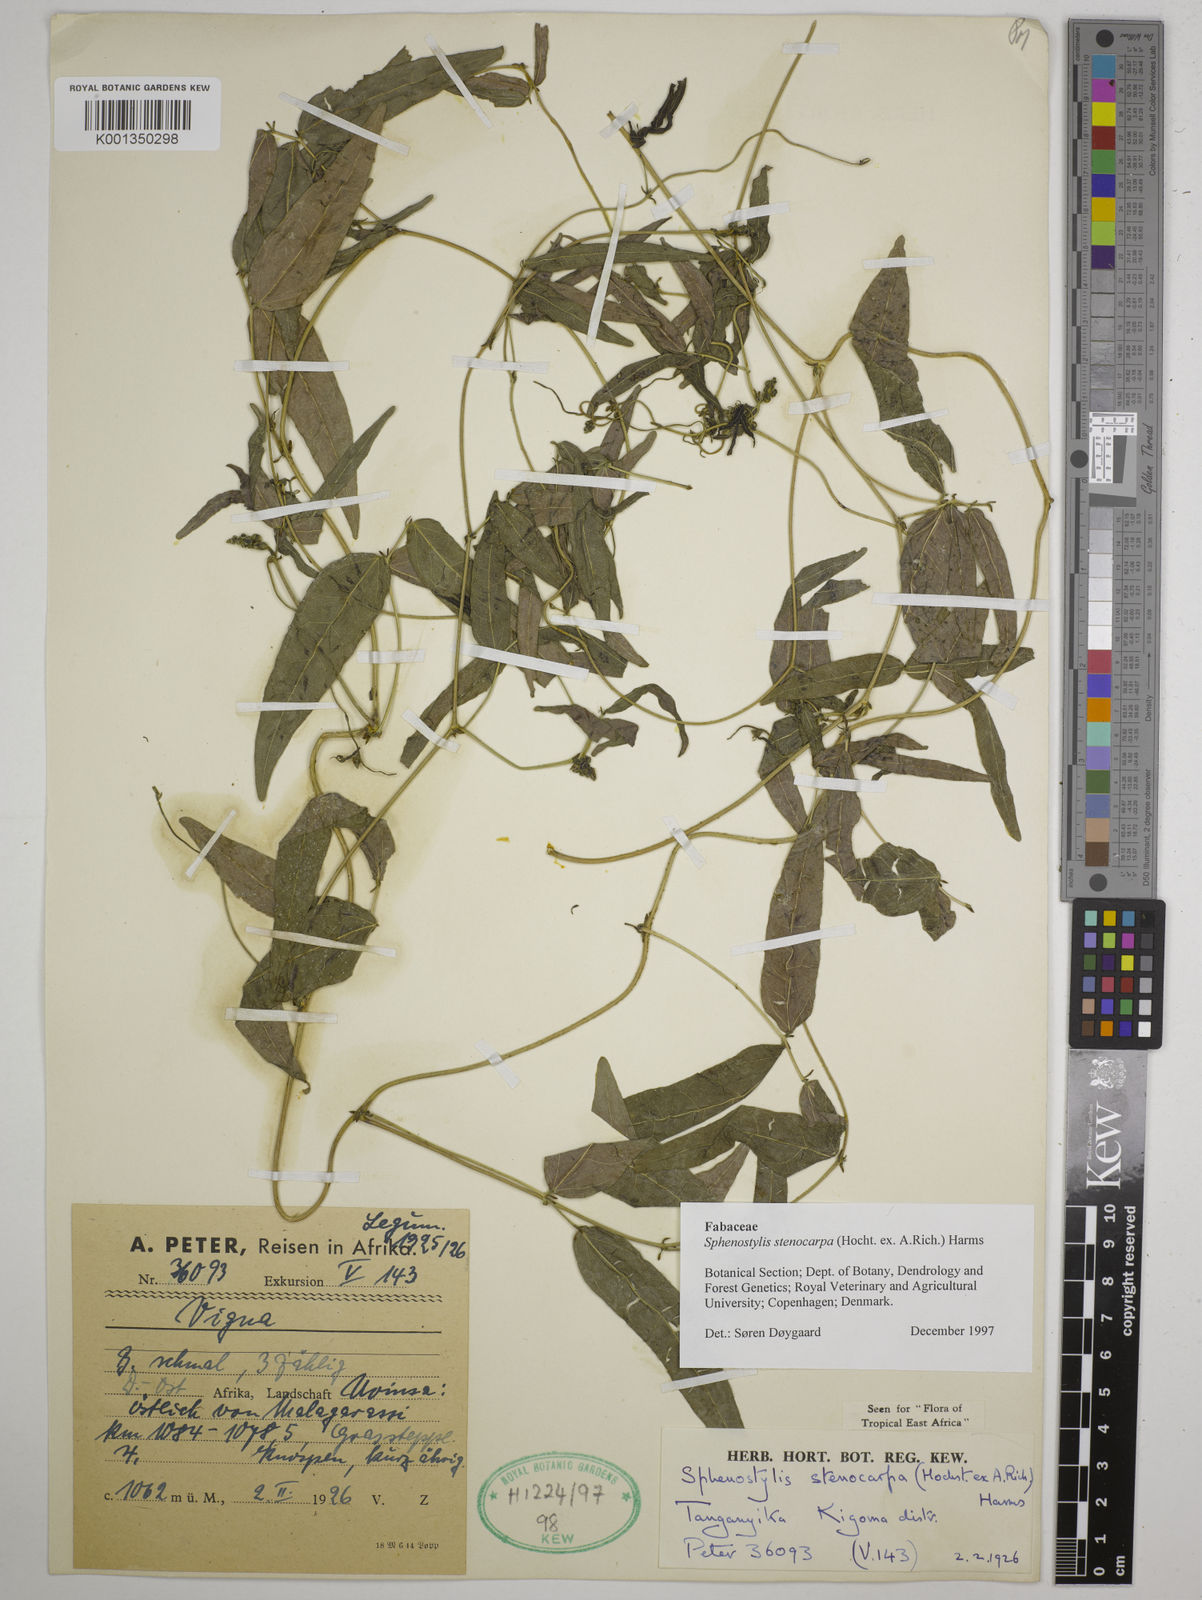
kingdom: Plantae
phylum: Tracheophyta
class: Magnoliopsida
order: Fabales
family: Fabaceae
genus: Sphenostylis
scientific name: Sphenostylis stenocarpa
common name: Yam-pea
